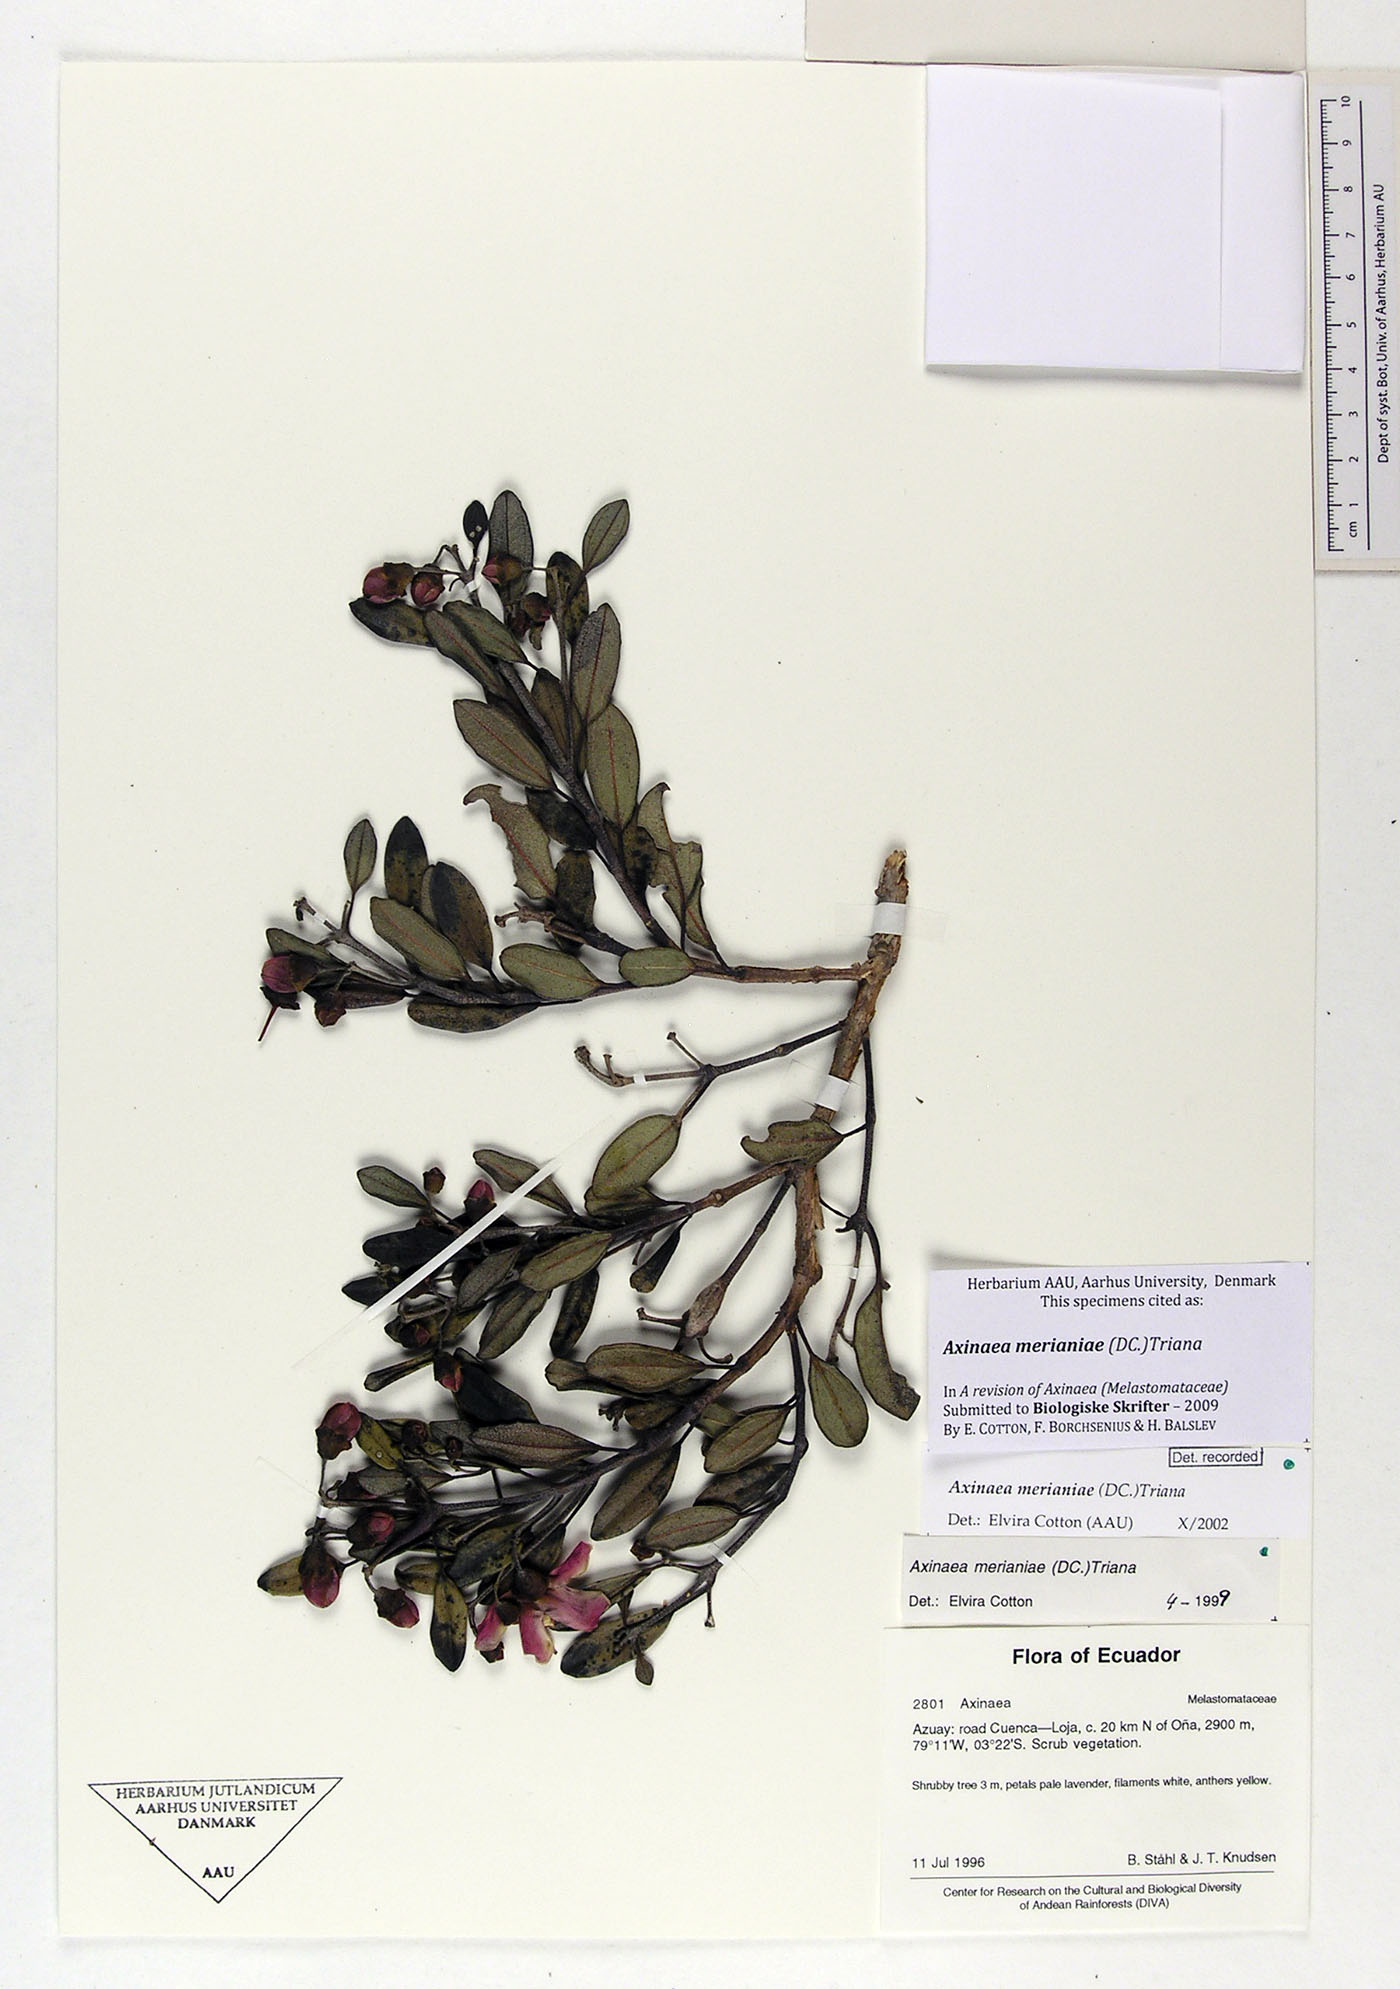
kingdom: Plantae
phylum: Tracheophyta
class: Magnoliopsida
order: Myrtales
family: Melastomataceae
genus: Axinaea
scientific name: Axinaea merianiae
